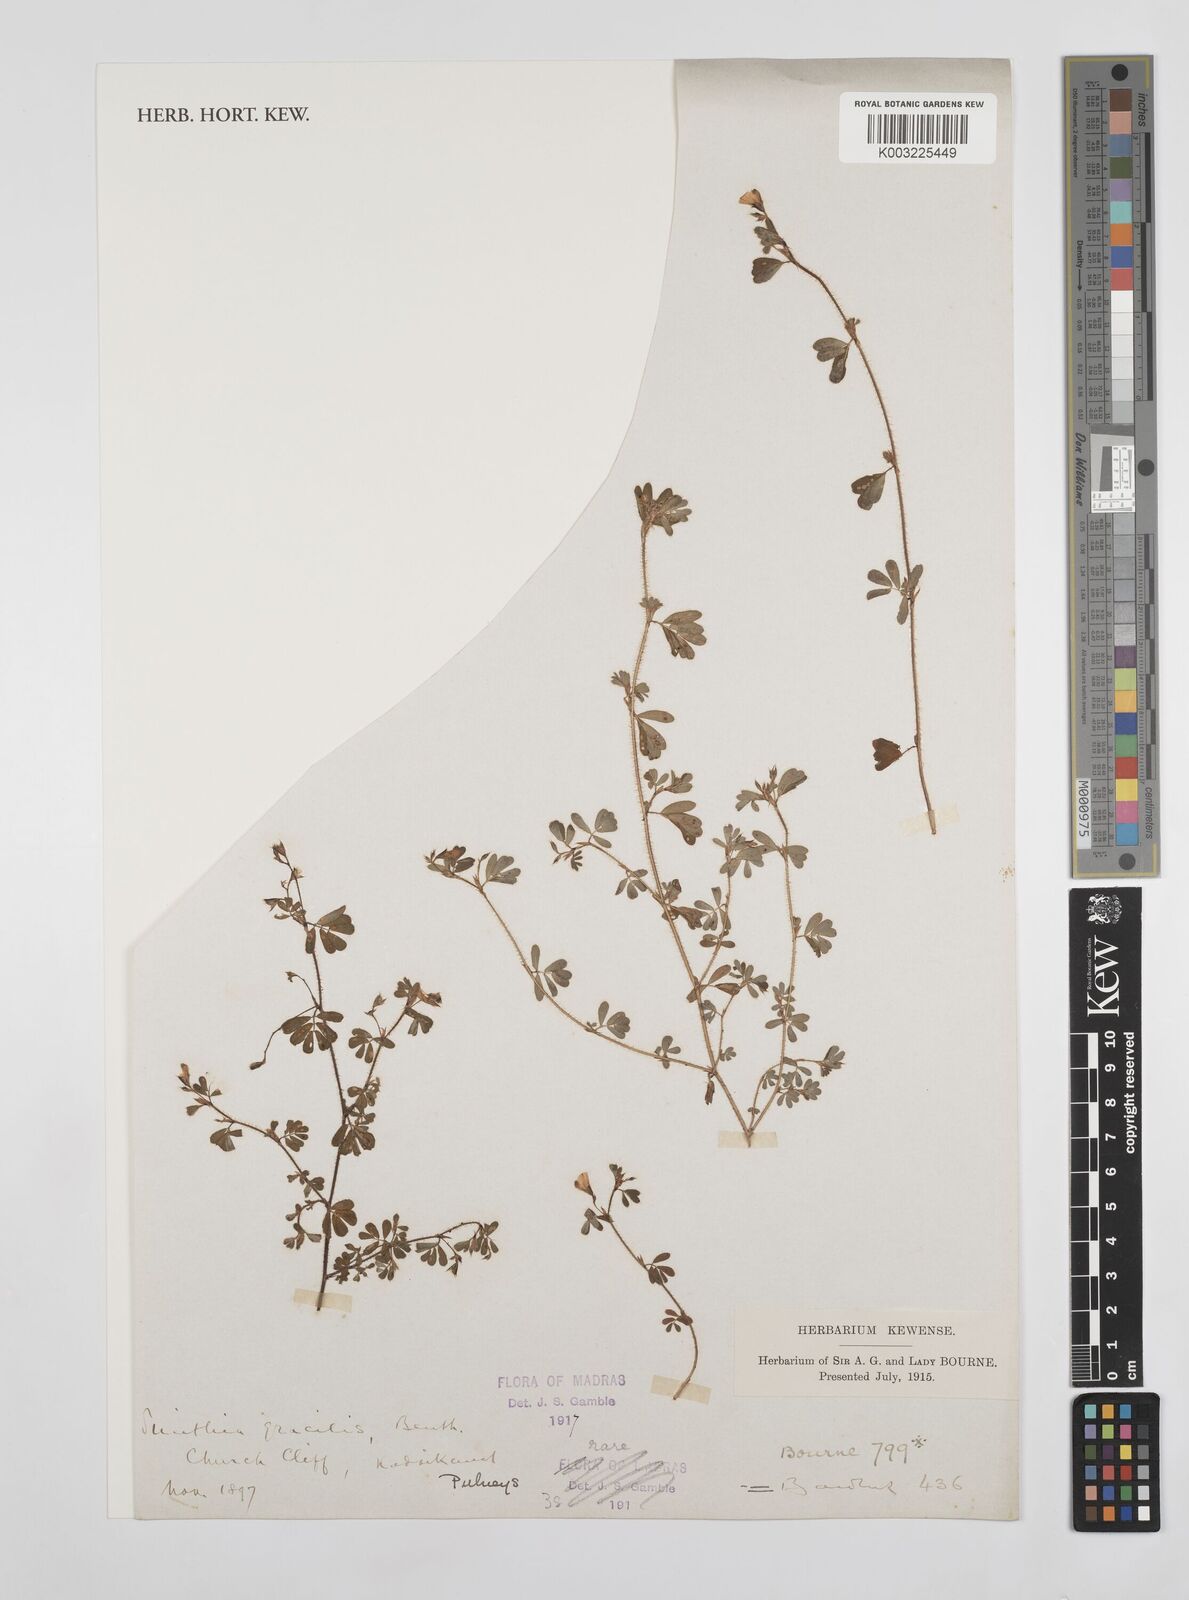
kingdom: Plantae
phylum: Tracheophyta
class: Magnoliopsida
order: Fabales
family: Fabaceae
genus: Smithia
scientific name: Smithia gracilis
